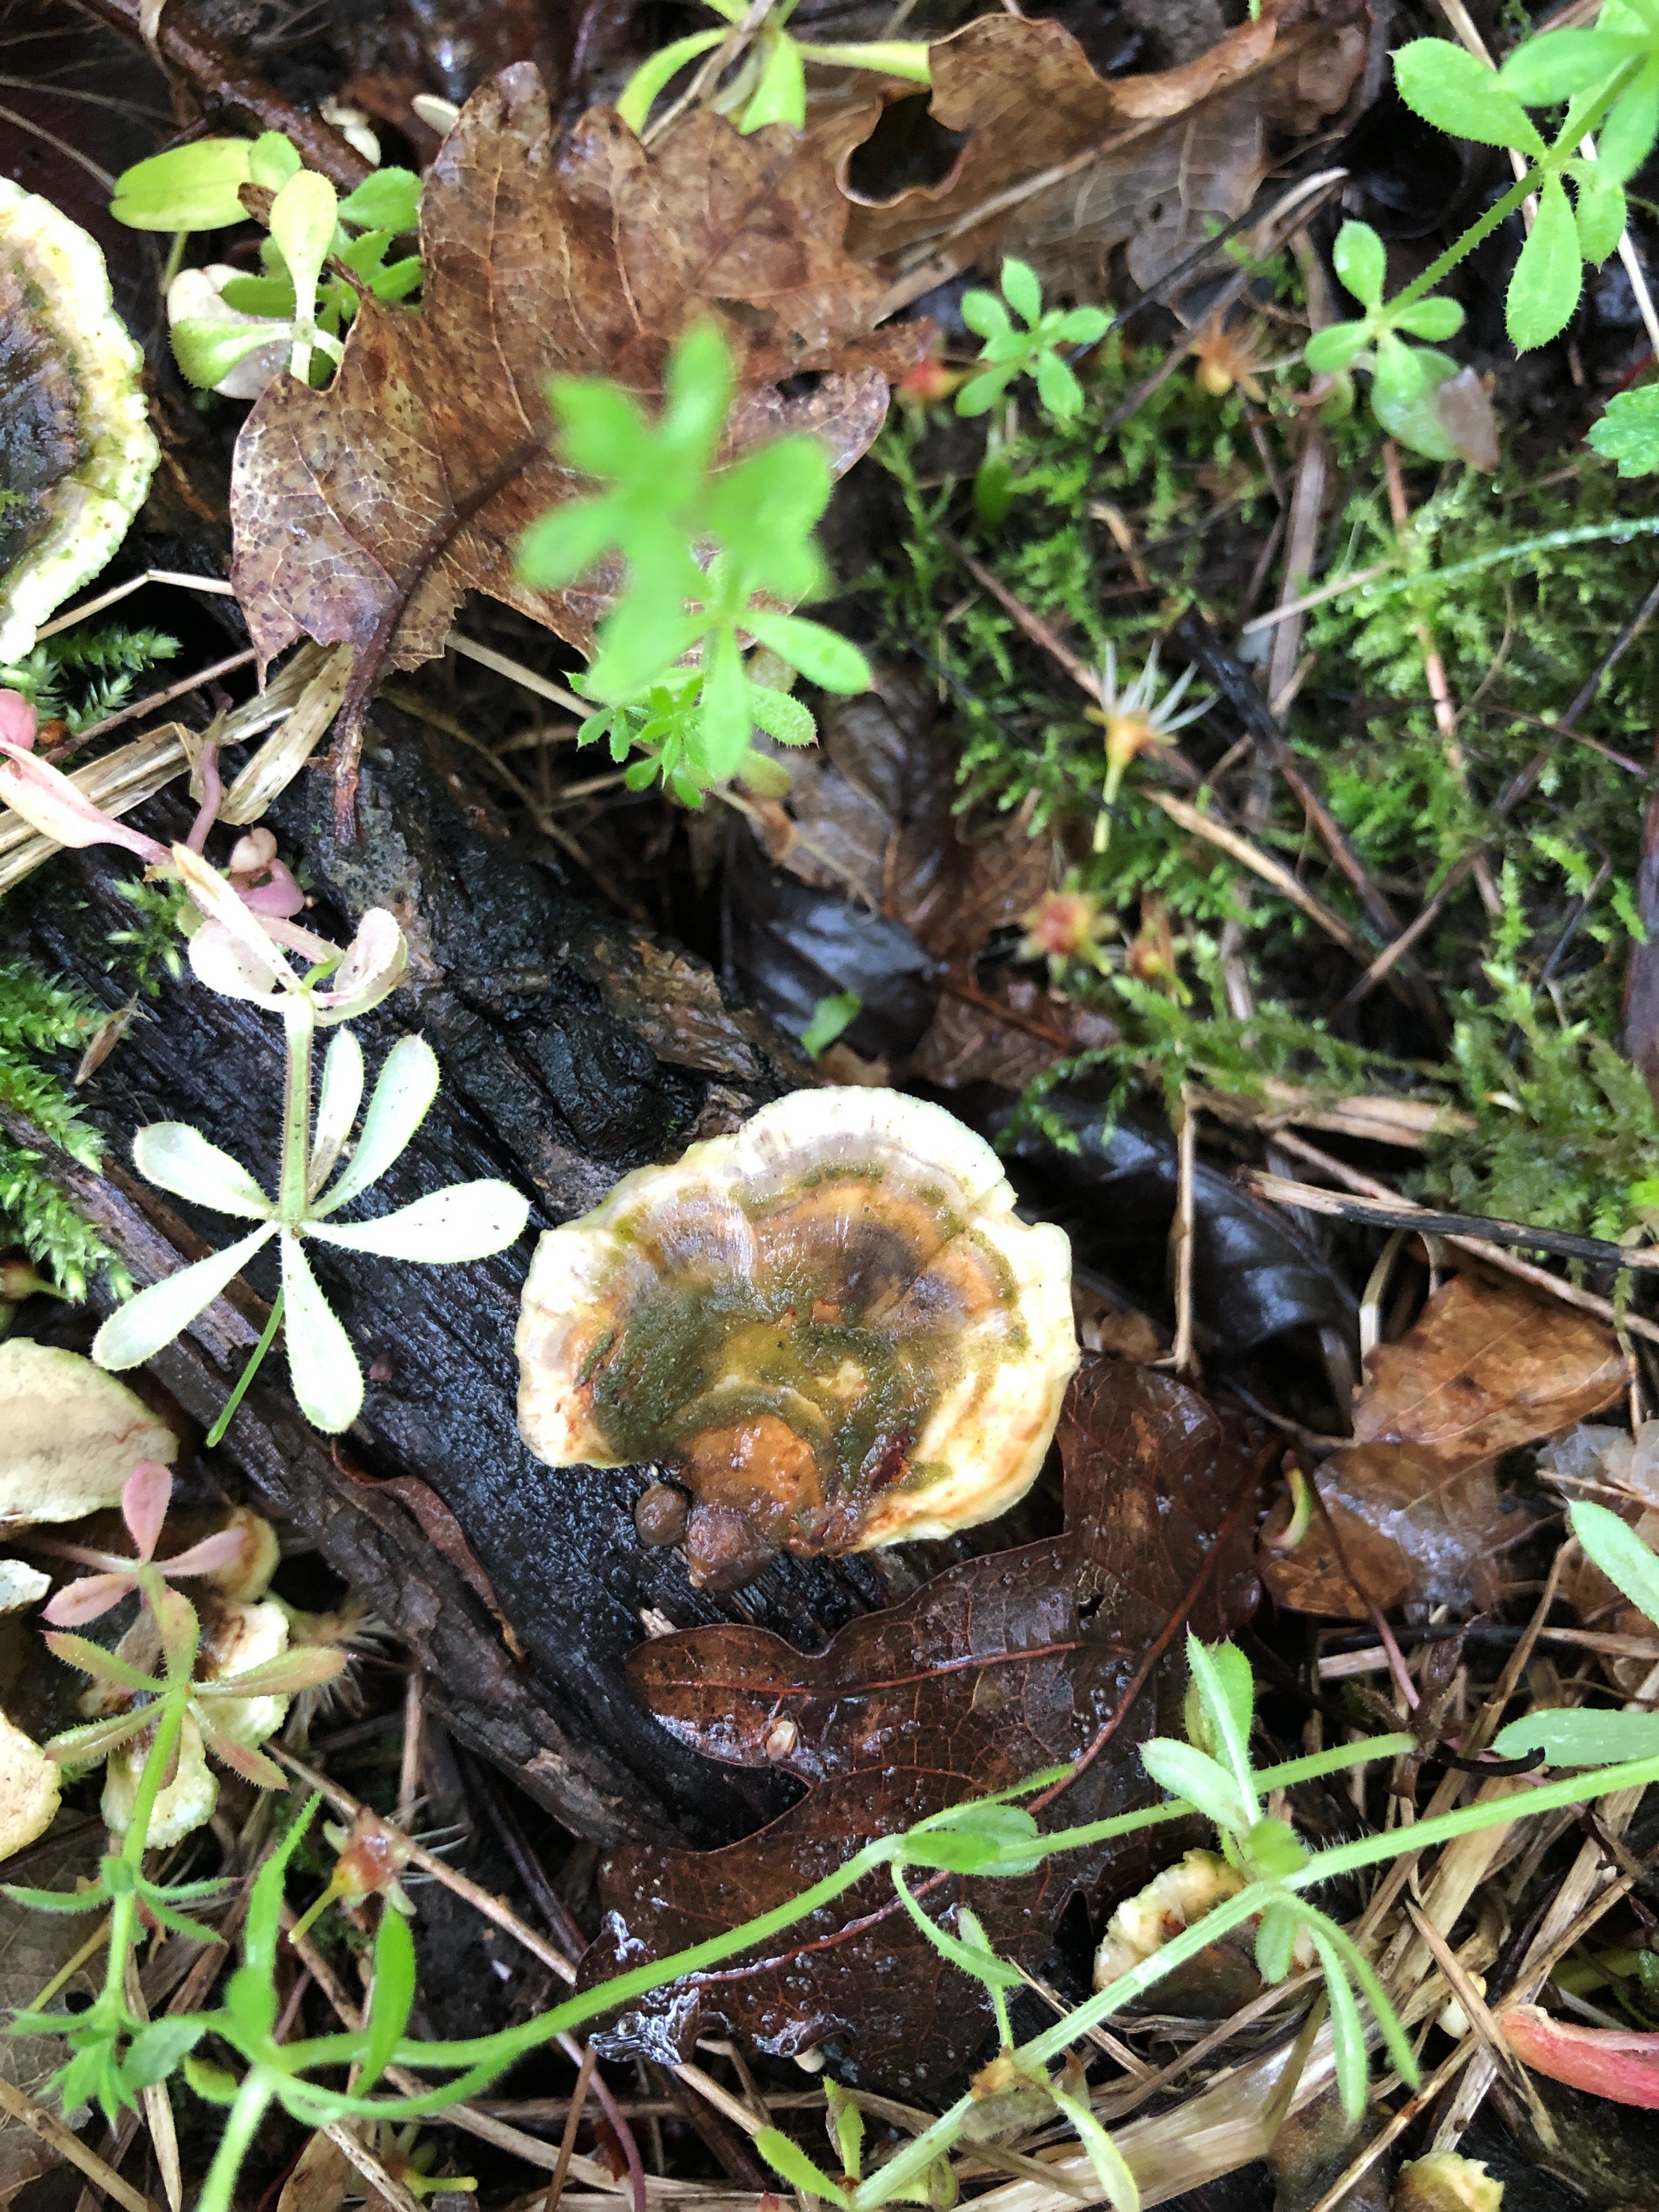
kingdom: Fungi
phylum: Basidiomycota
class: Agaricomycetes
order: Polyporales
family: Polyporaceae
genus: Trametes
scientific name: Trametes versicolor
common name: Broget læderporesvamp
